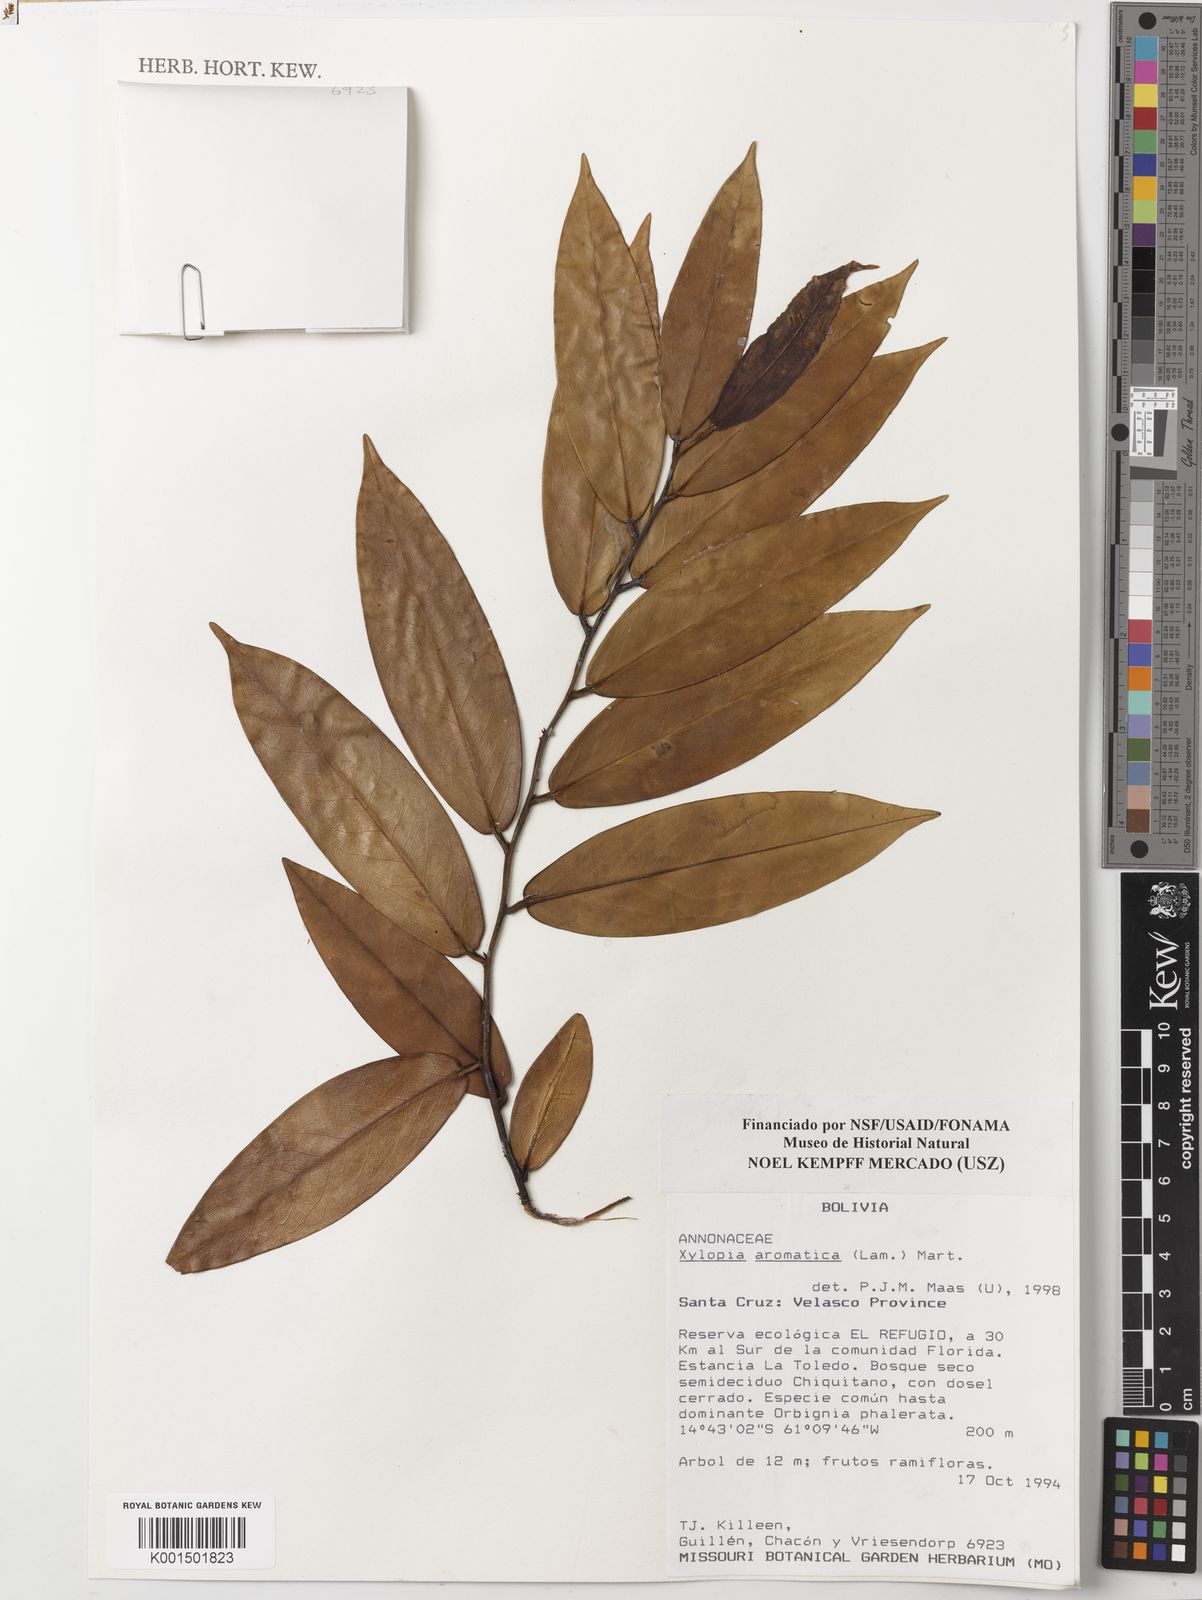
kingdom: Plantae
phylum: Tracheophyta
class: Magnoliopsida
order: Magnoliales
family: Annonaceae
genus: Xylopia
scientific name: Xylopia aromatica
